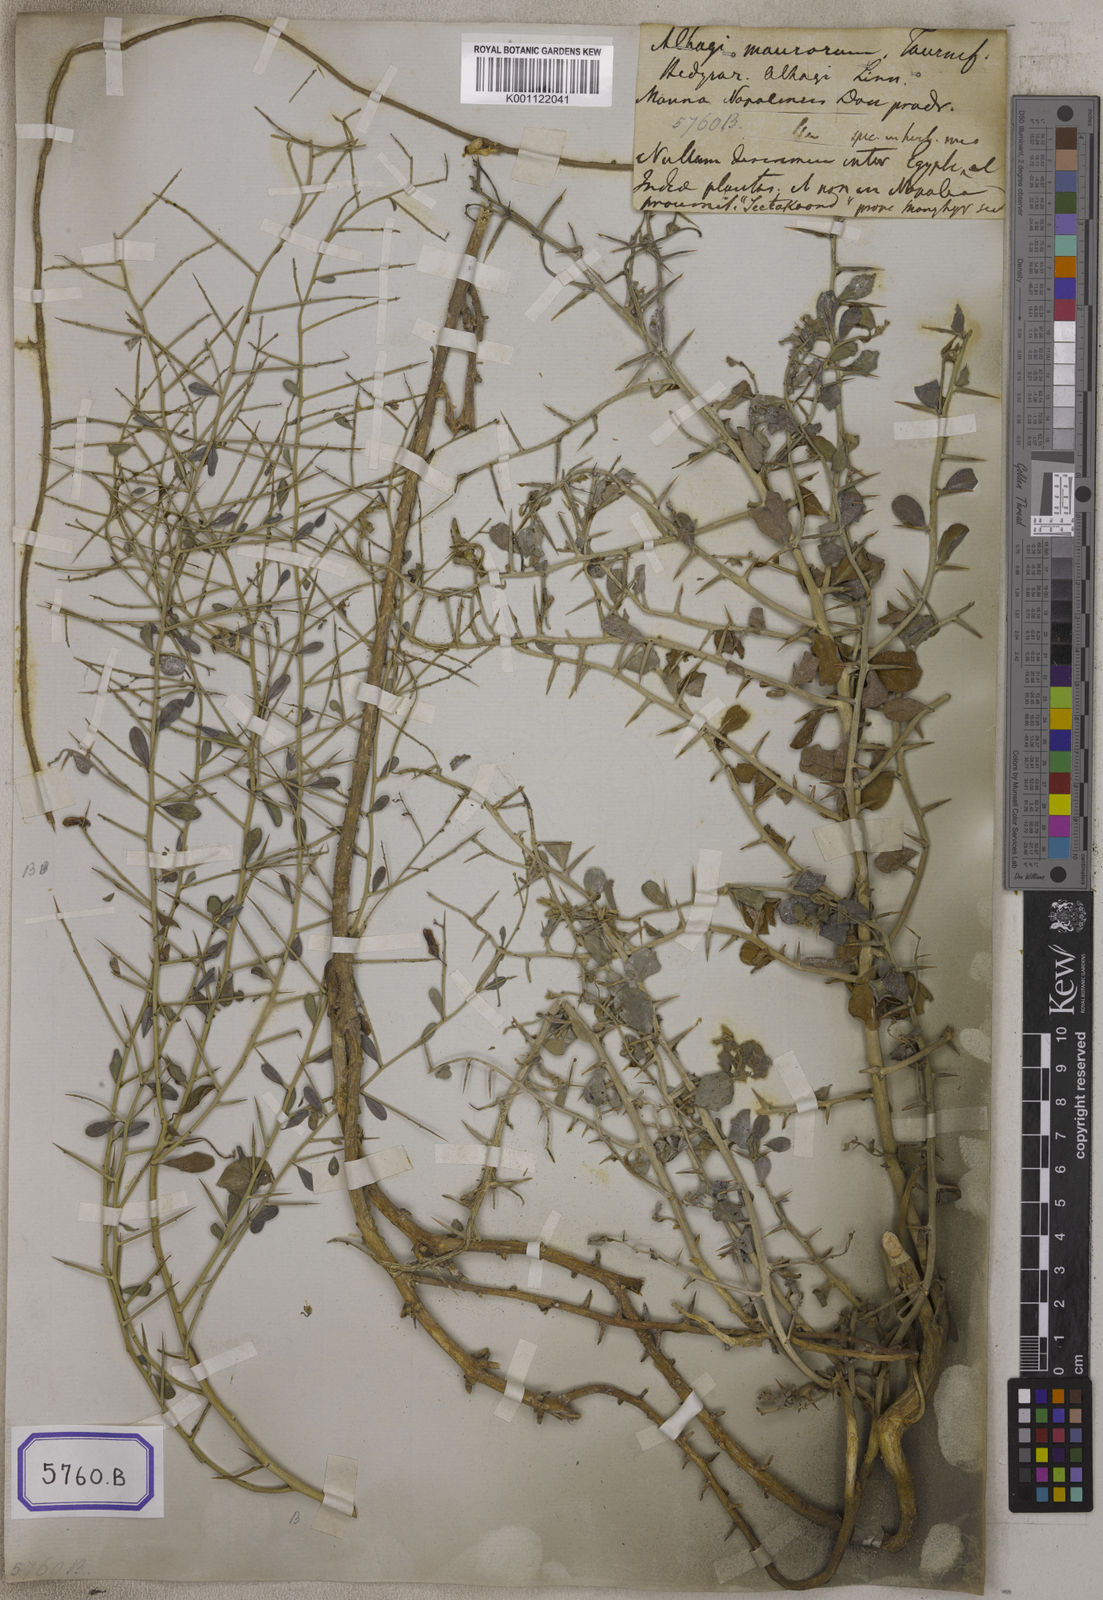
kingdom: Plantae
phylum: Tracheophyta
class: Magnoliopsida
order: Fabales
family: Fabaceae
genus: Alhagi
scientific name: Alhagi maurorum
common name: Camelthorn
